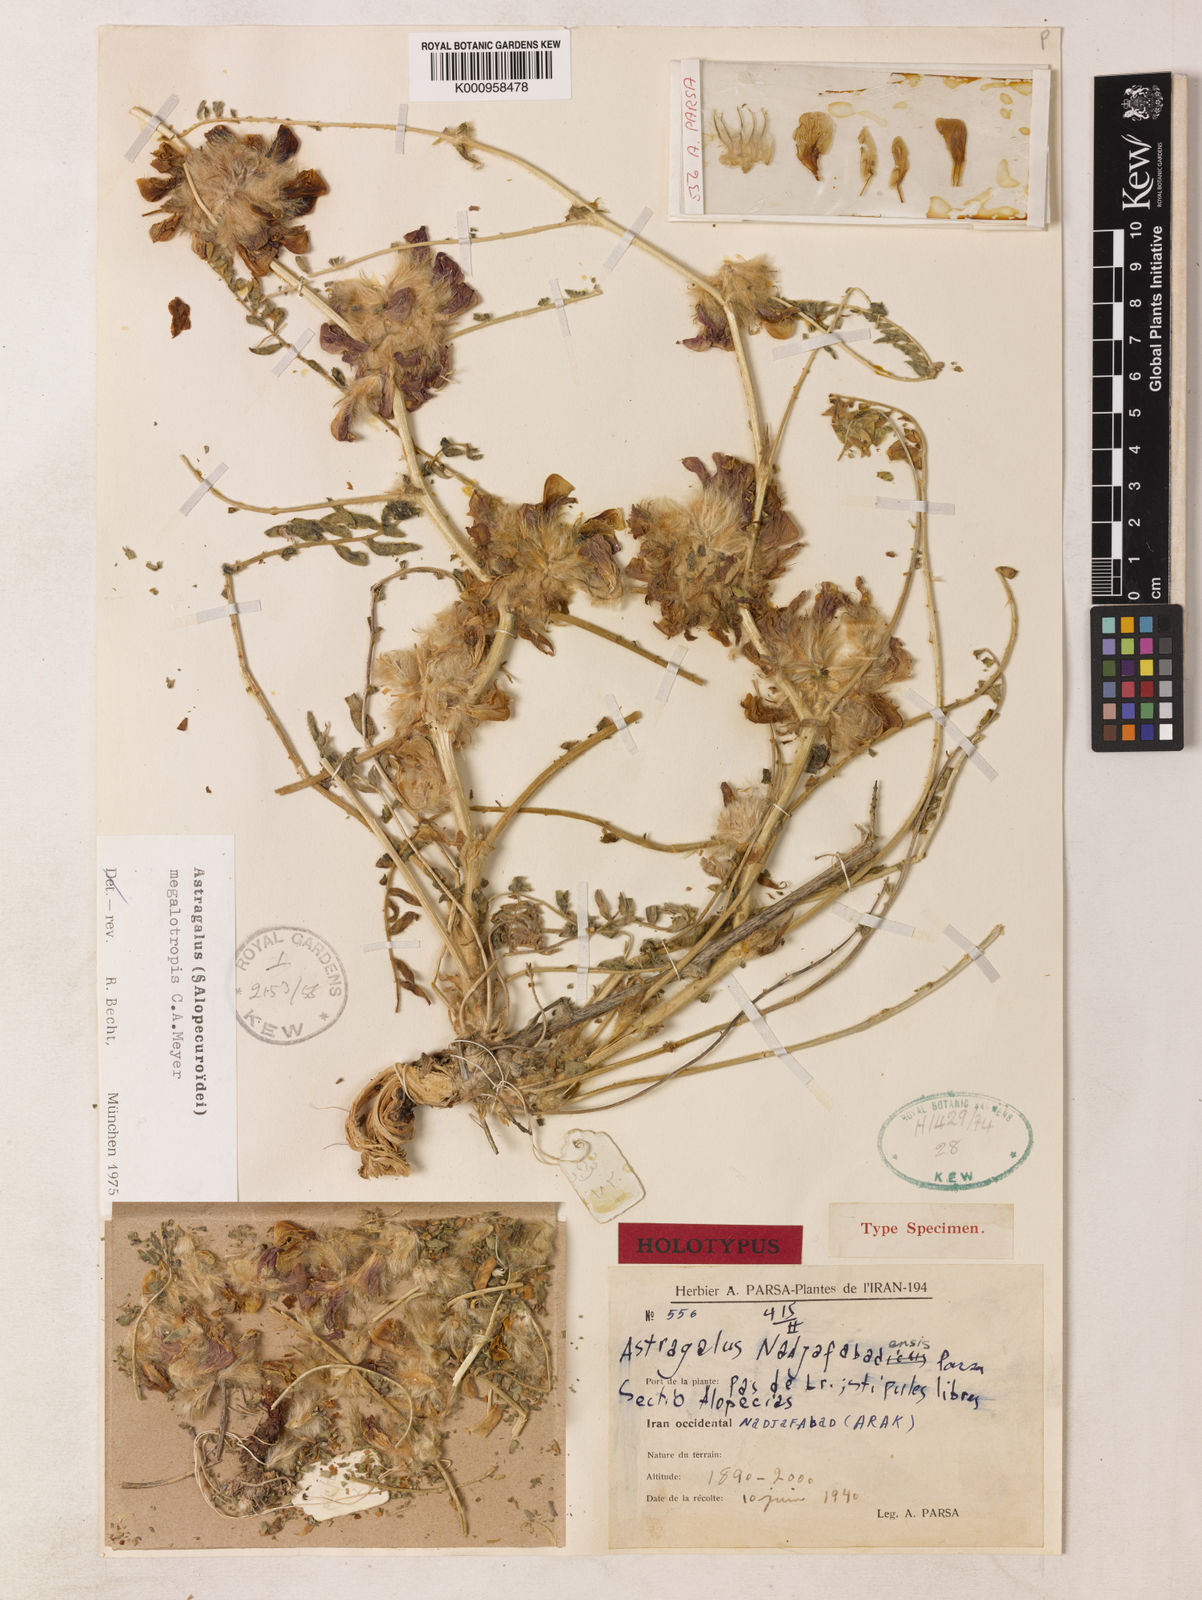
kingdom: Plantae
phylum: Tracheophyta
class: Magnoliopsida
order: Fabales
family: Fabaceae
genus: Astragalus
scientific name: Astragalus
